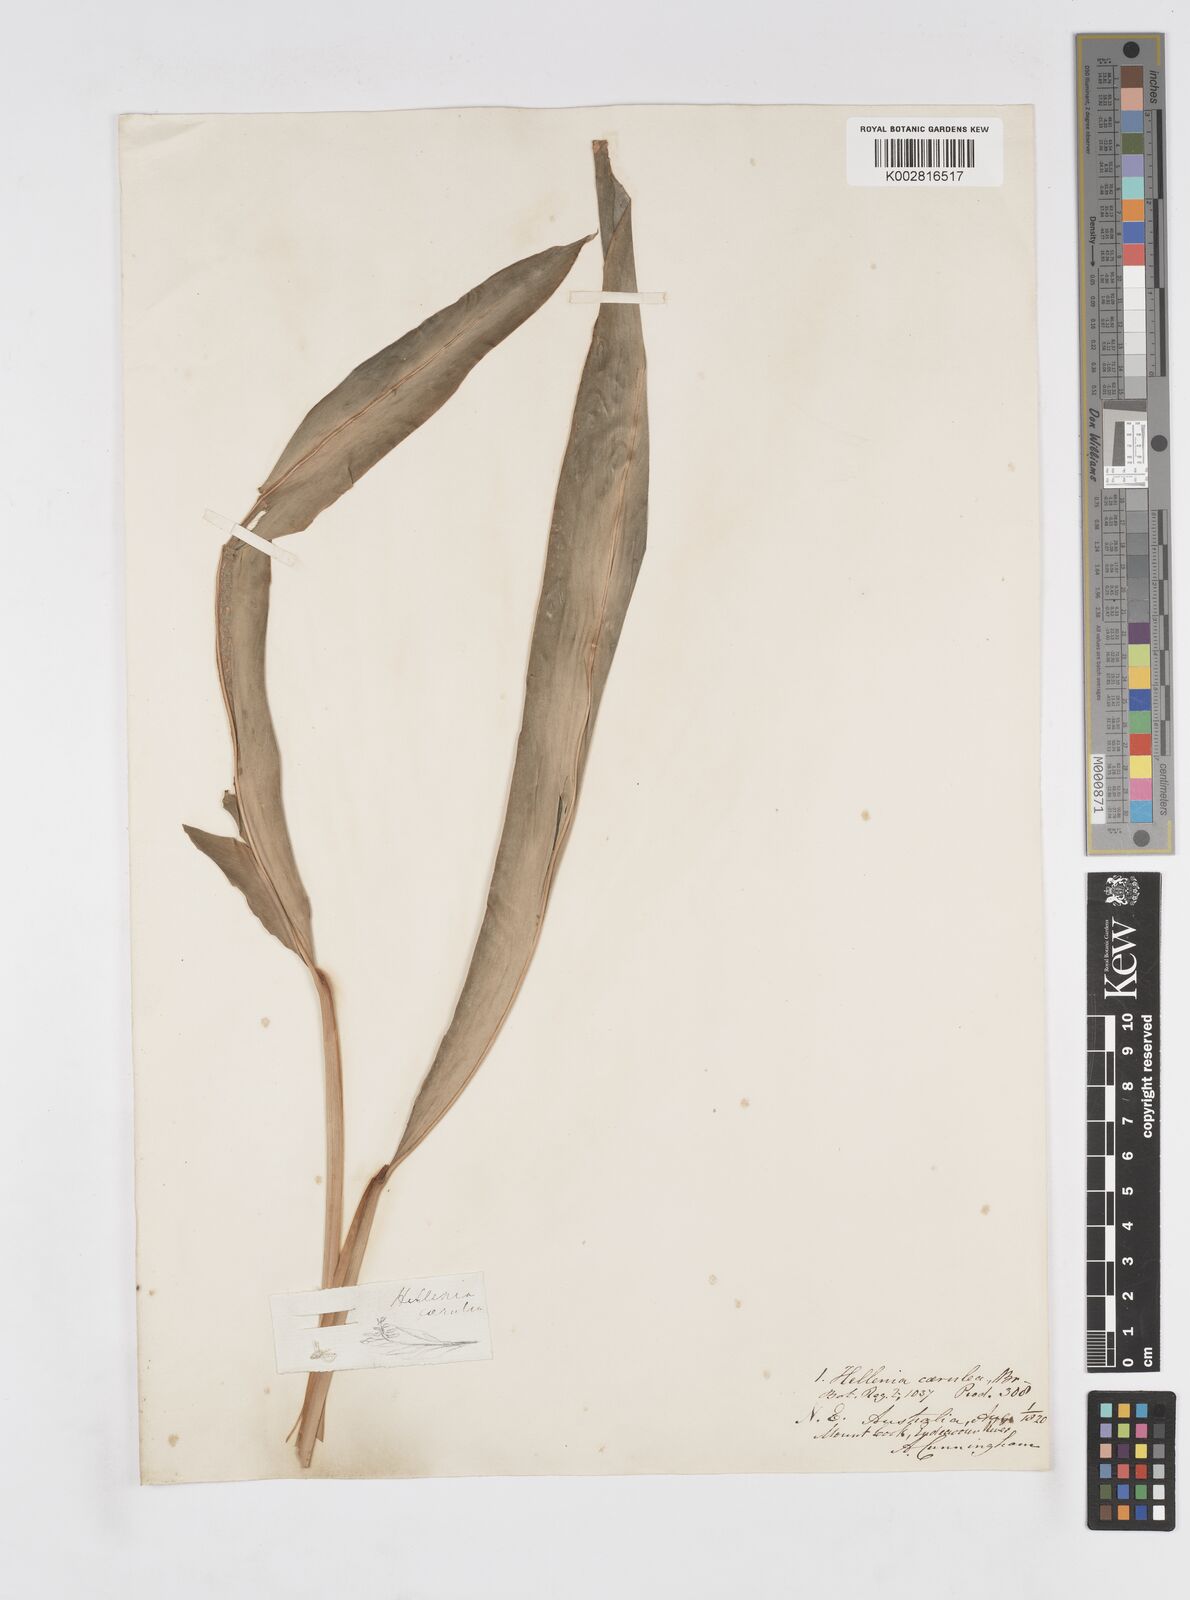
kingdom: Plantae
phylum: Tracheophyta
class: Liliopsida
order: Zingiberales
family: Zingiberaceae
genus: Alpinia
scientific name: Alpinia
